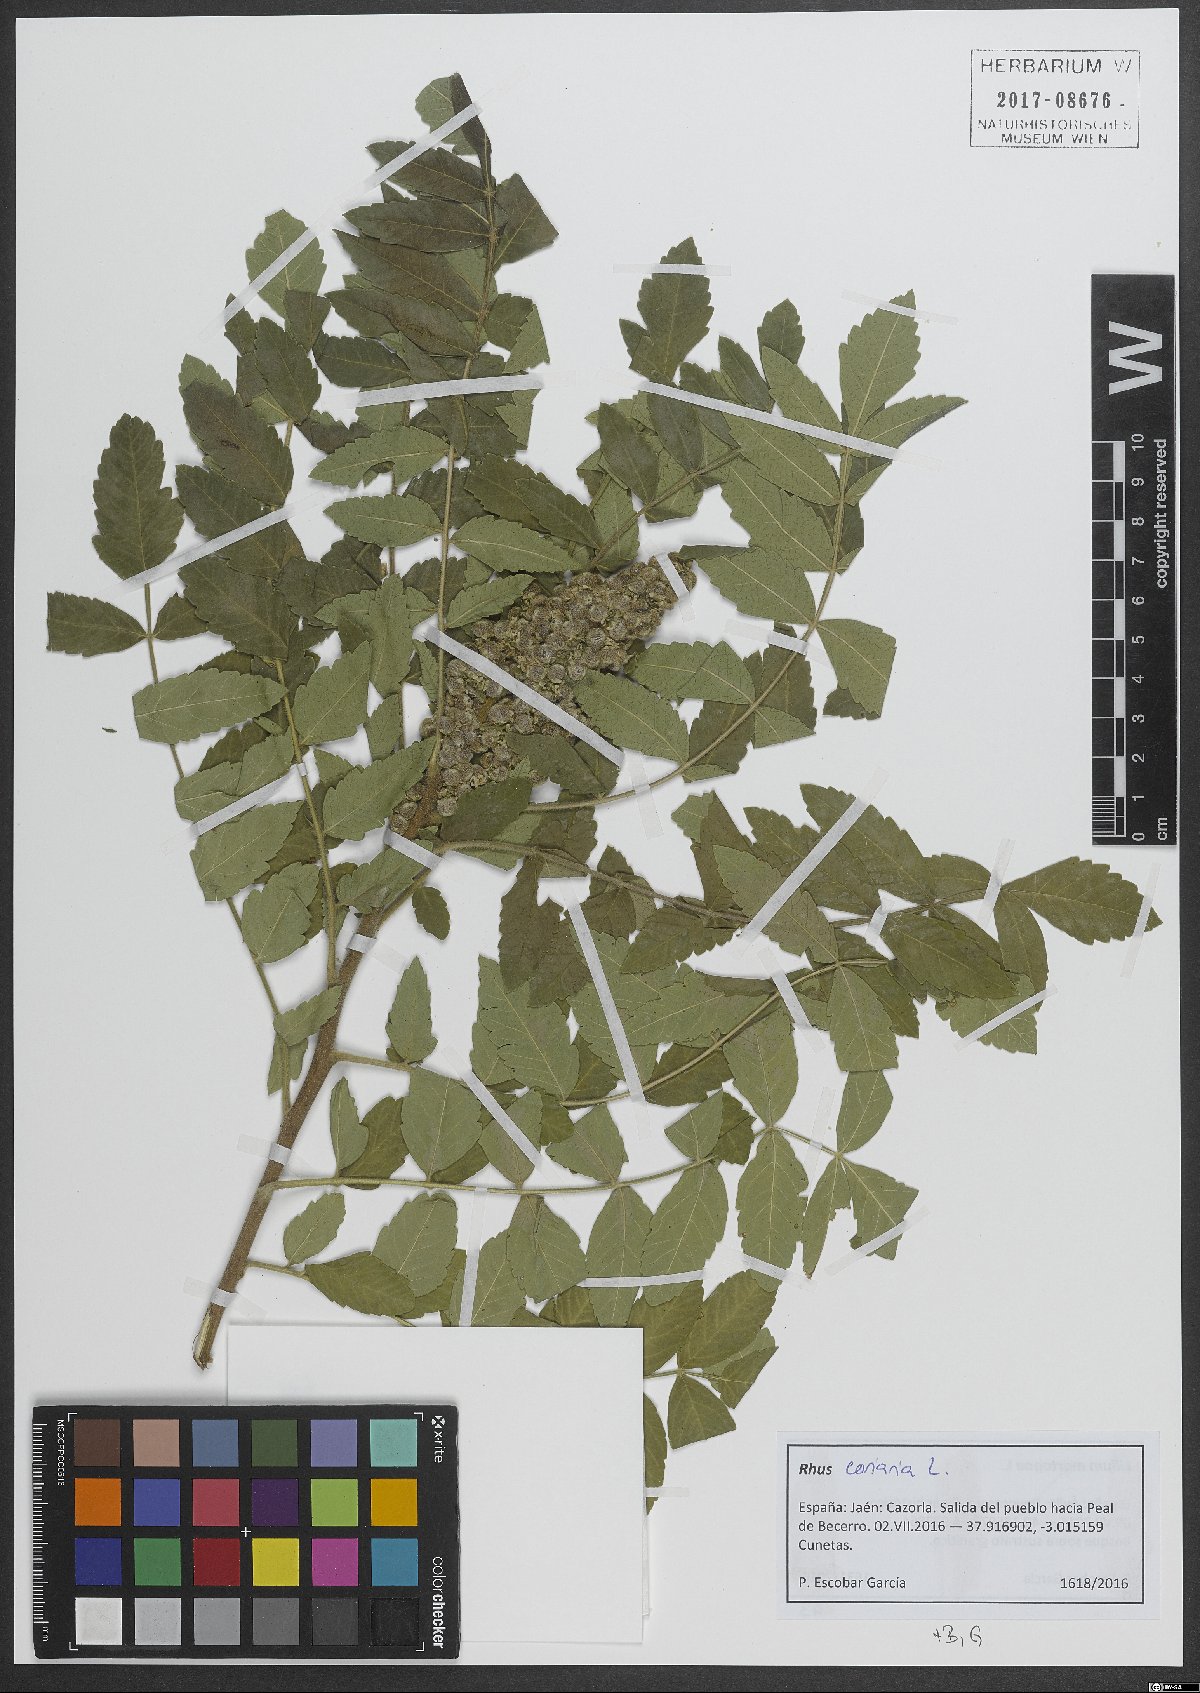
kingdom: Plantae
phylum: Tracheophyta
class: Magnoliopsida
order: Sapindales
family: Anacardiaceae
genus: Rhus
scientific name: Rhus coriaria
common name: Tanner's sumach
